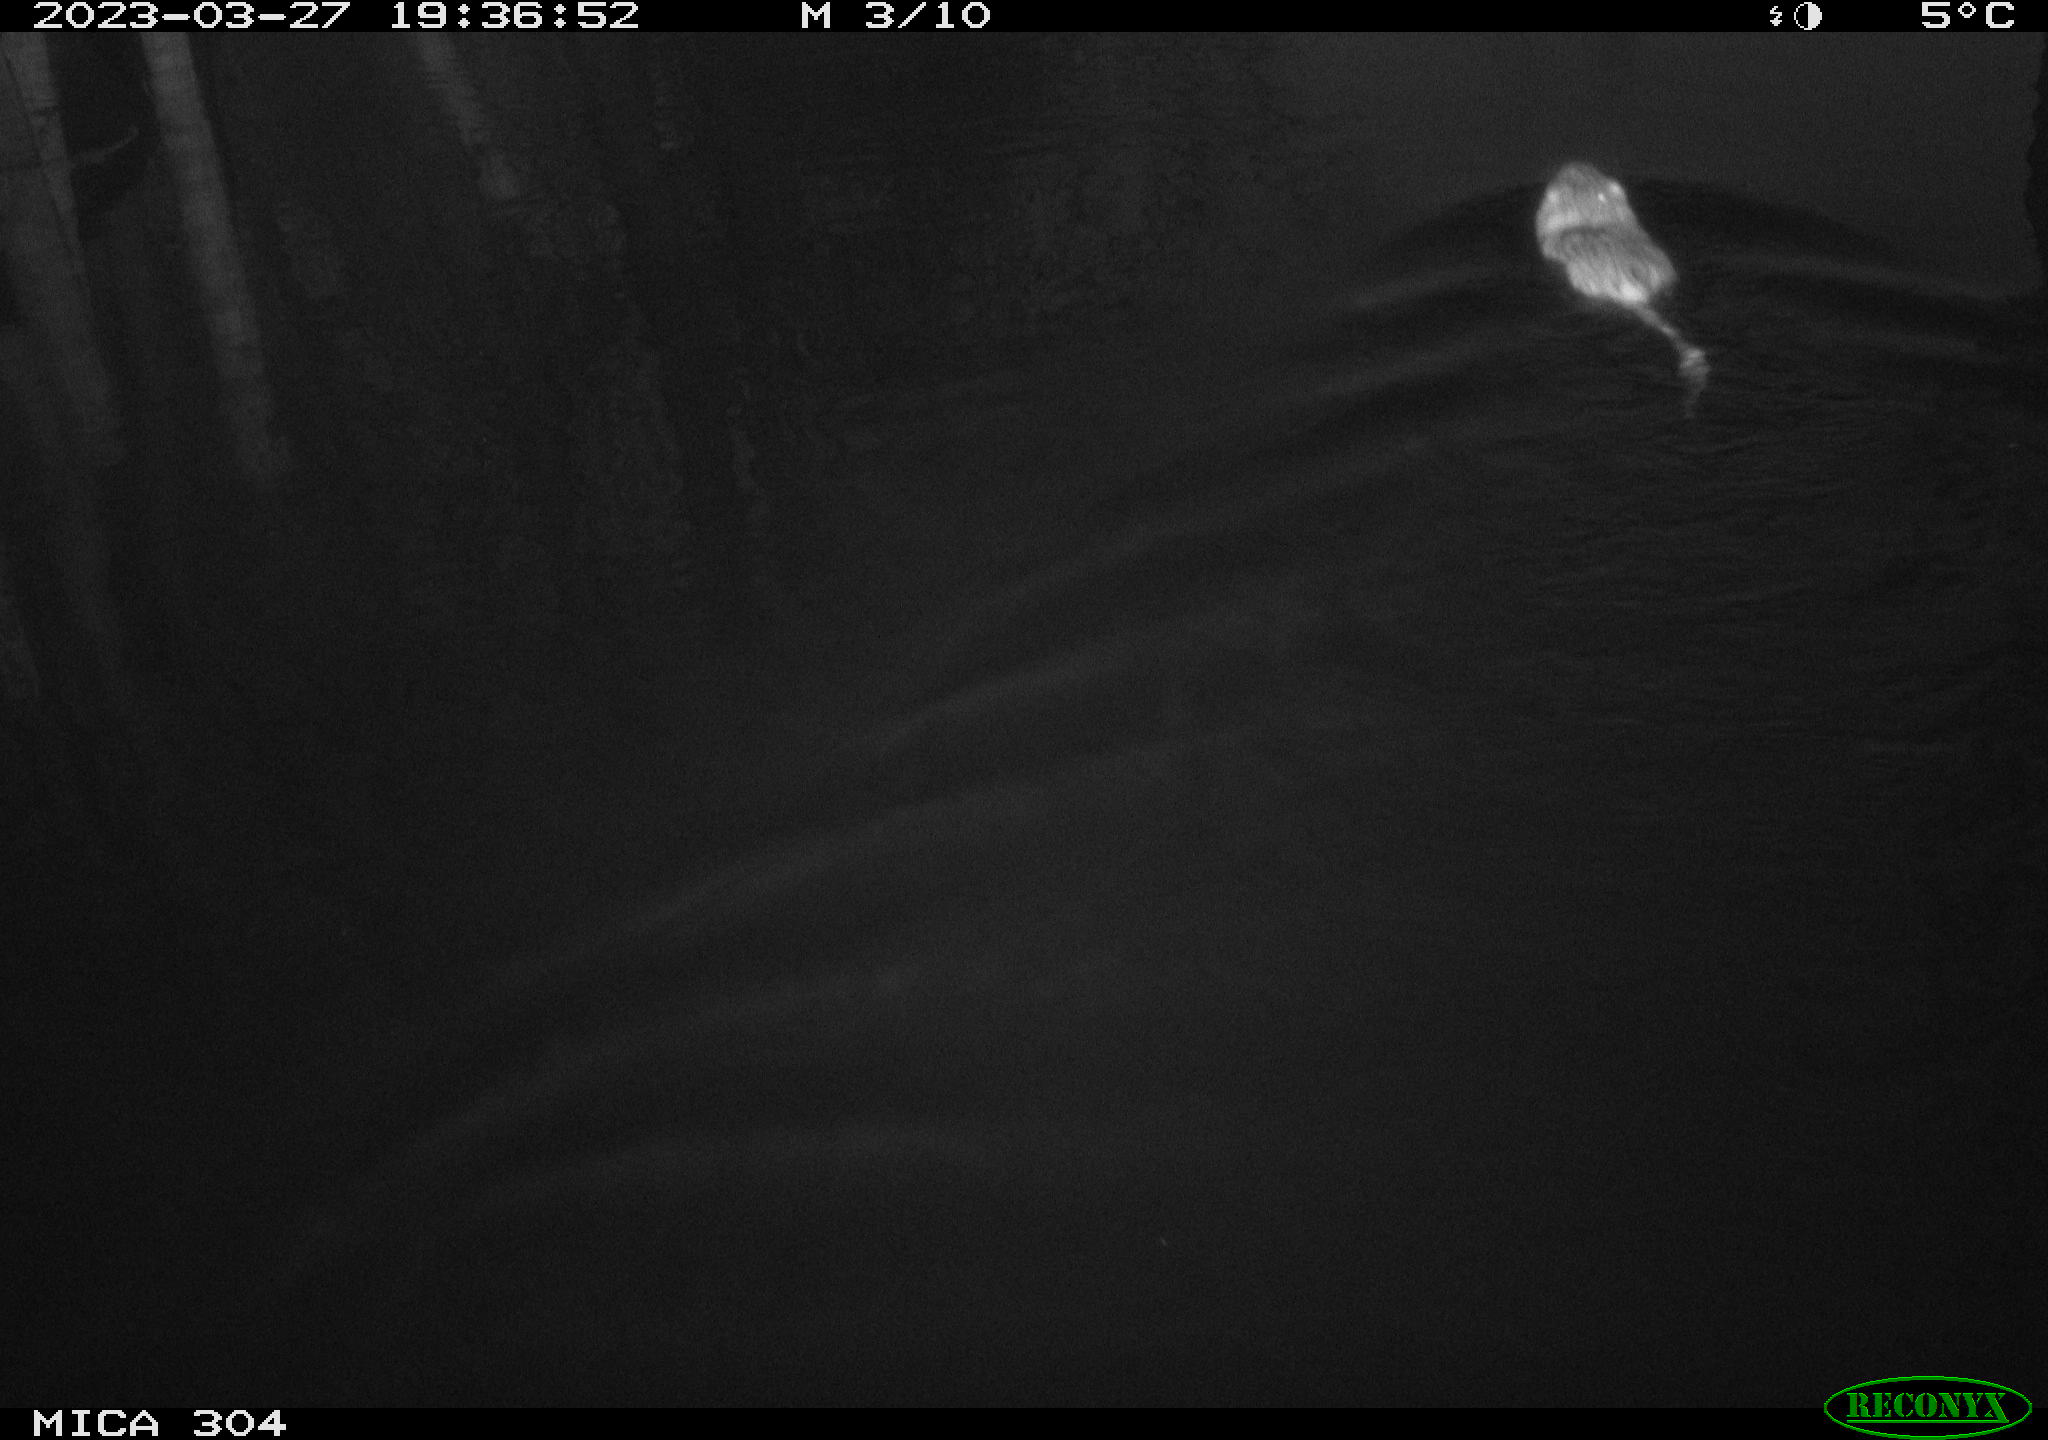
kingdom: Animalia
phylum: Chordata
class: Mammalia
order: Rodentia
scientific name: Rodentia
